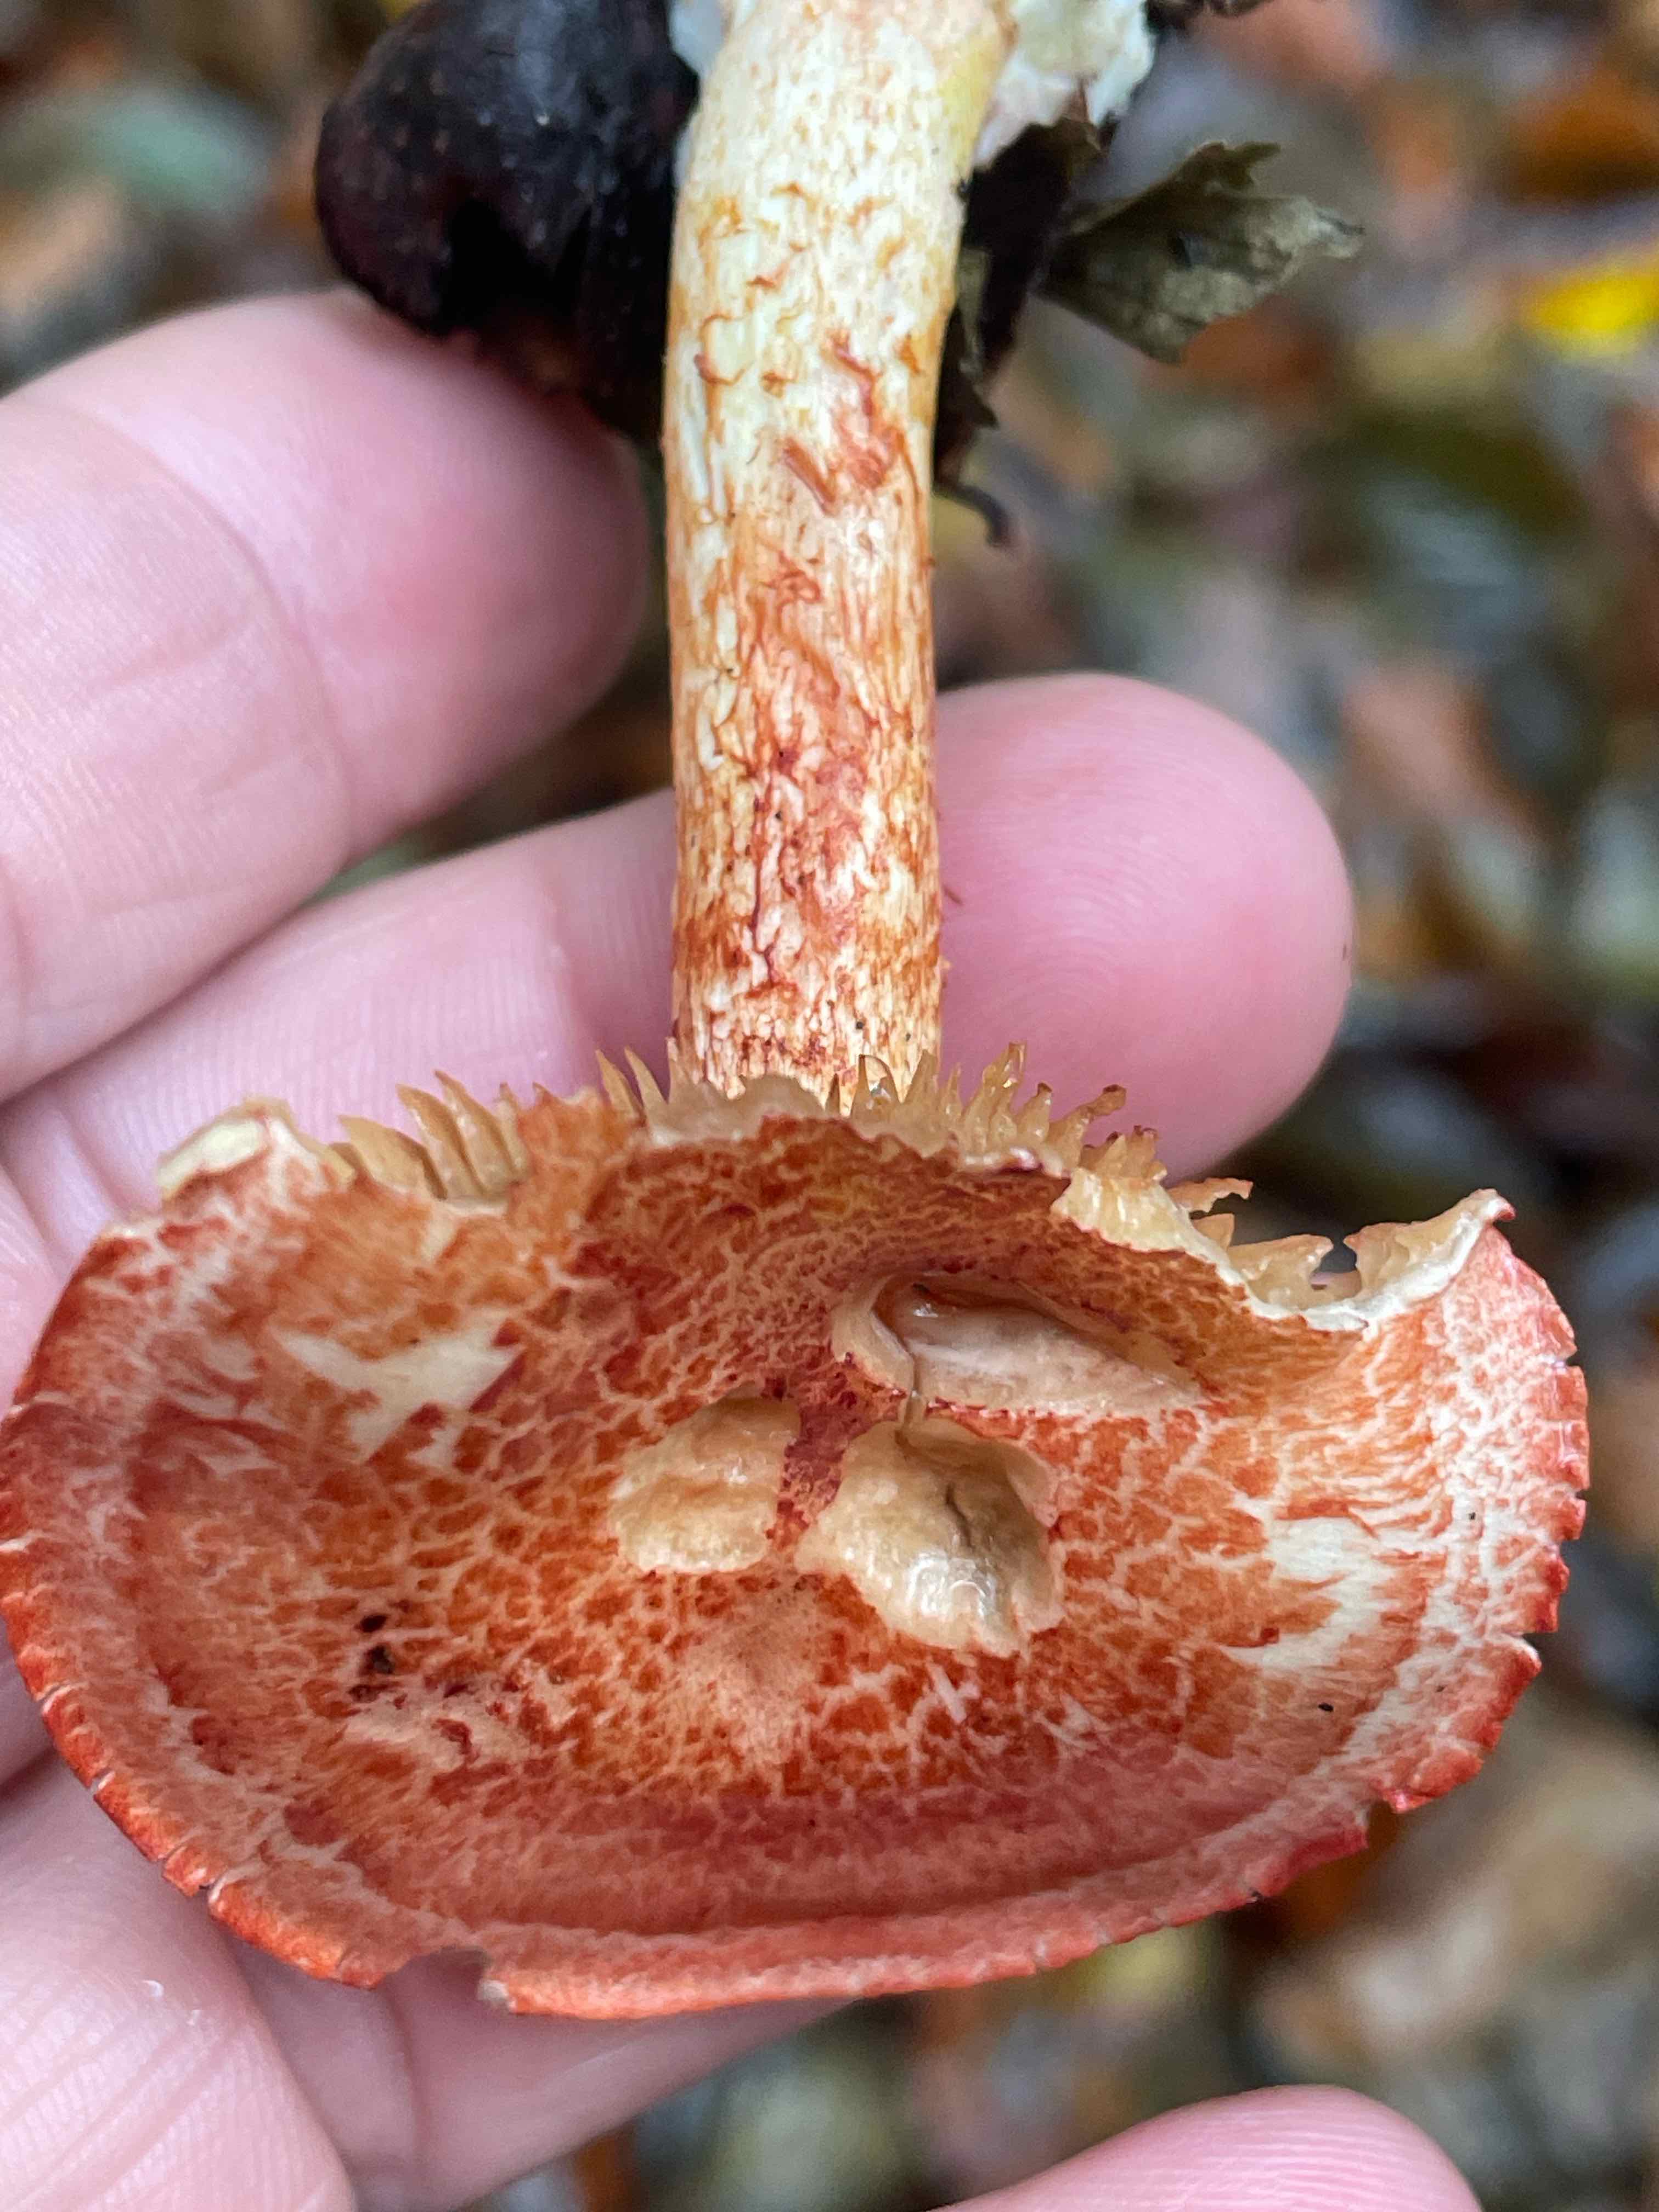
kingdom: Fungi
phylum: Basidiomycota
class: Agaricomycetes
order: Agaricales
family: Cortinariaceae
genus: Cortinarius
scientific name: Cortinarius bolaris
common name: cinnoberskællet slørhat
